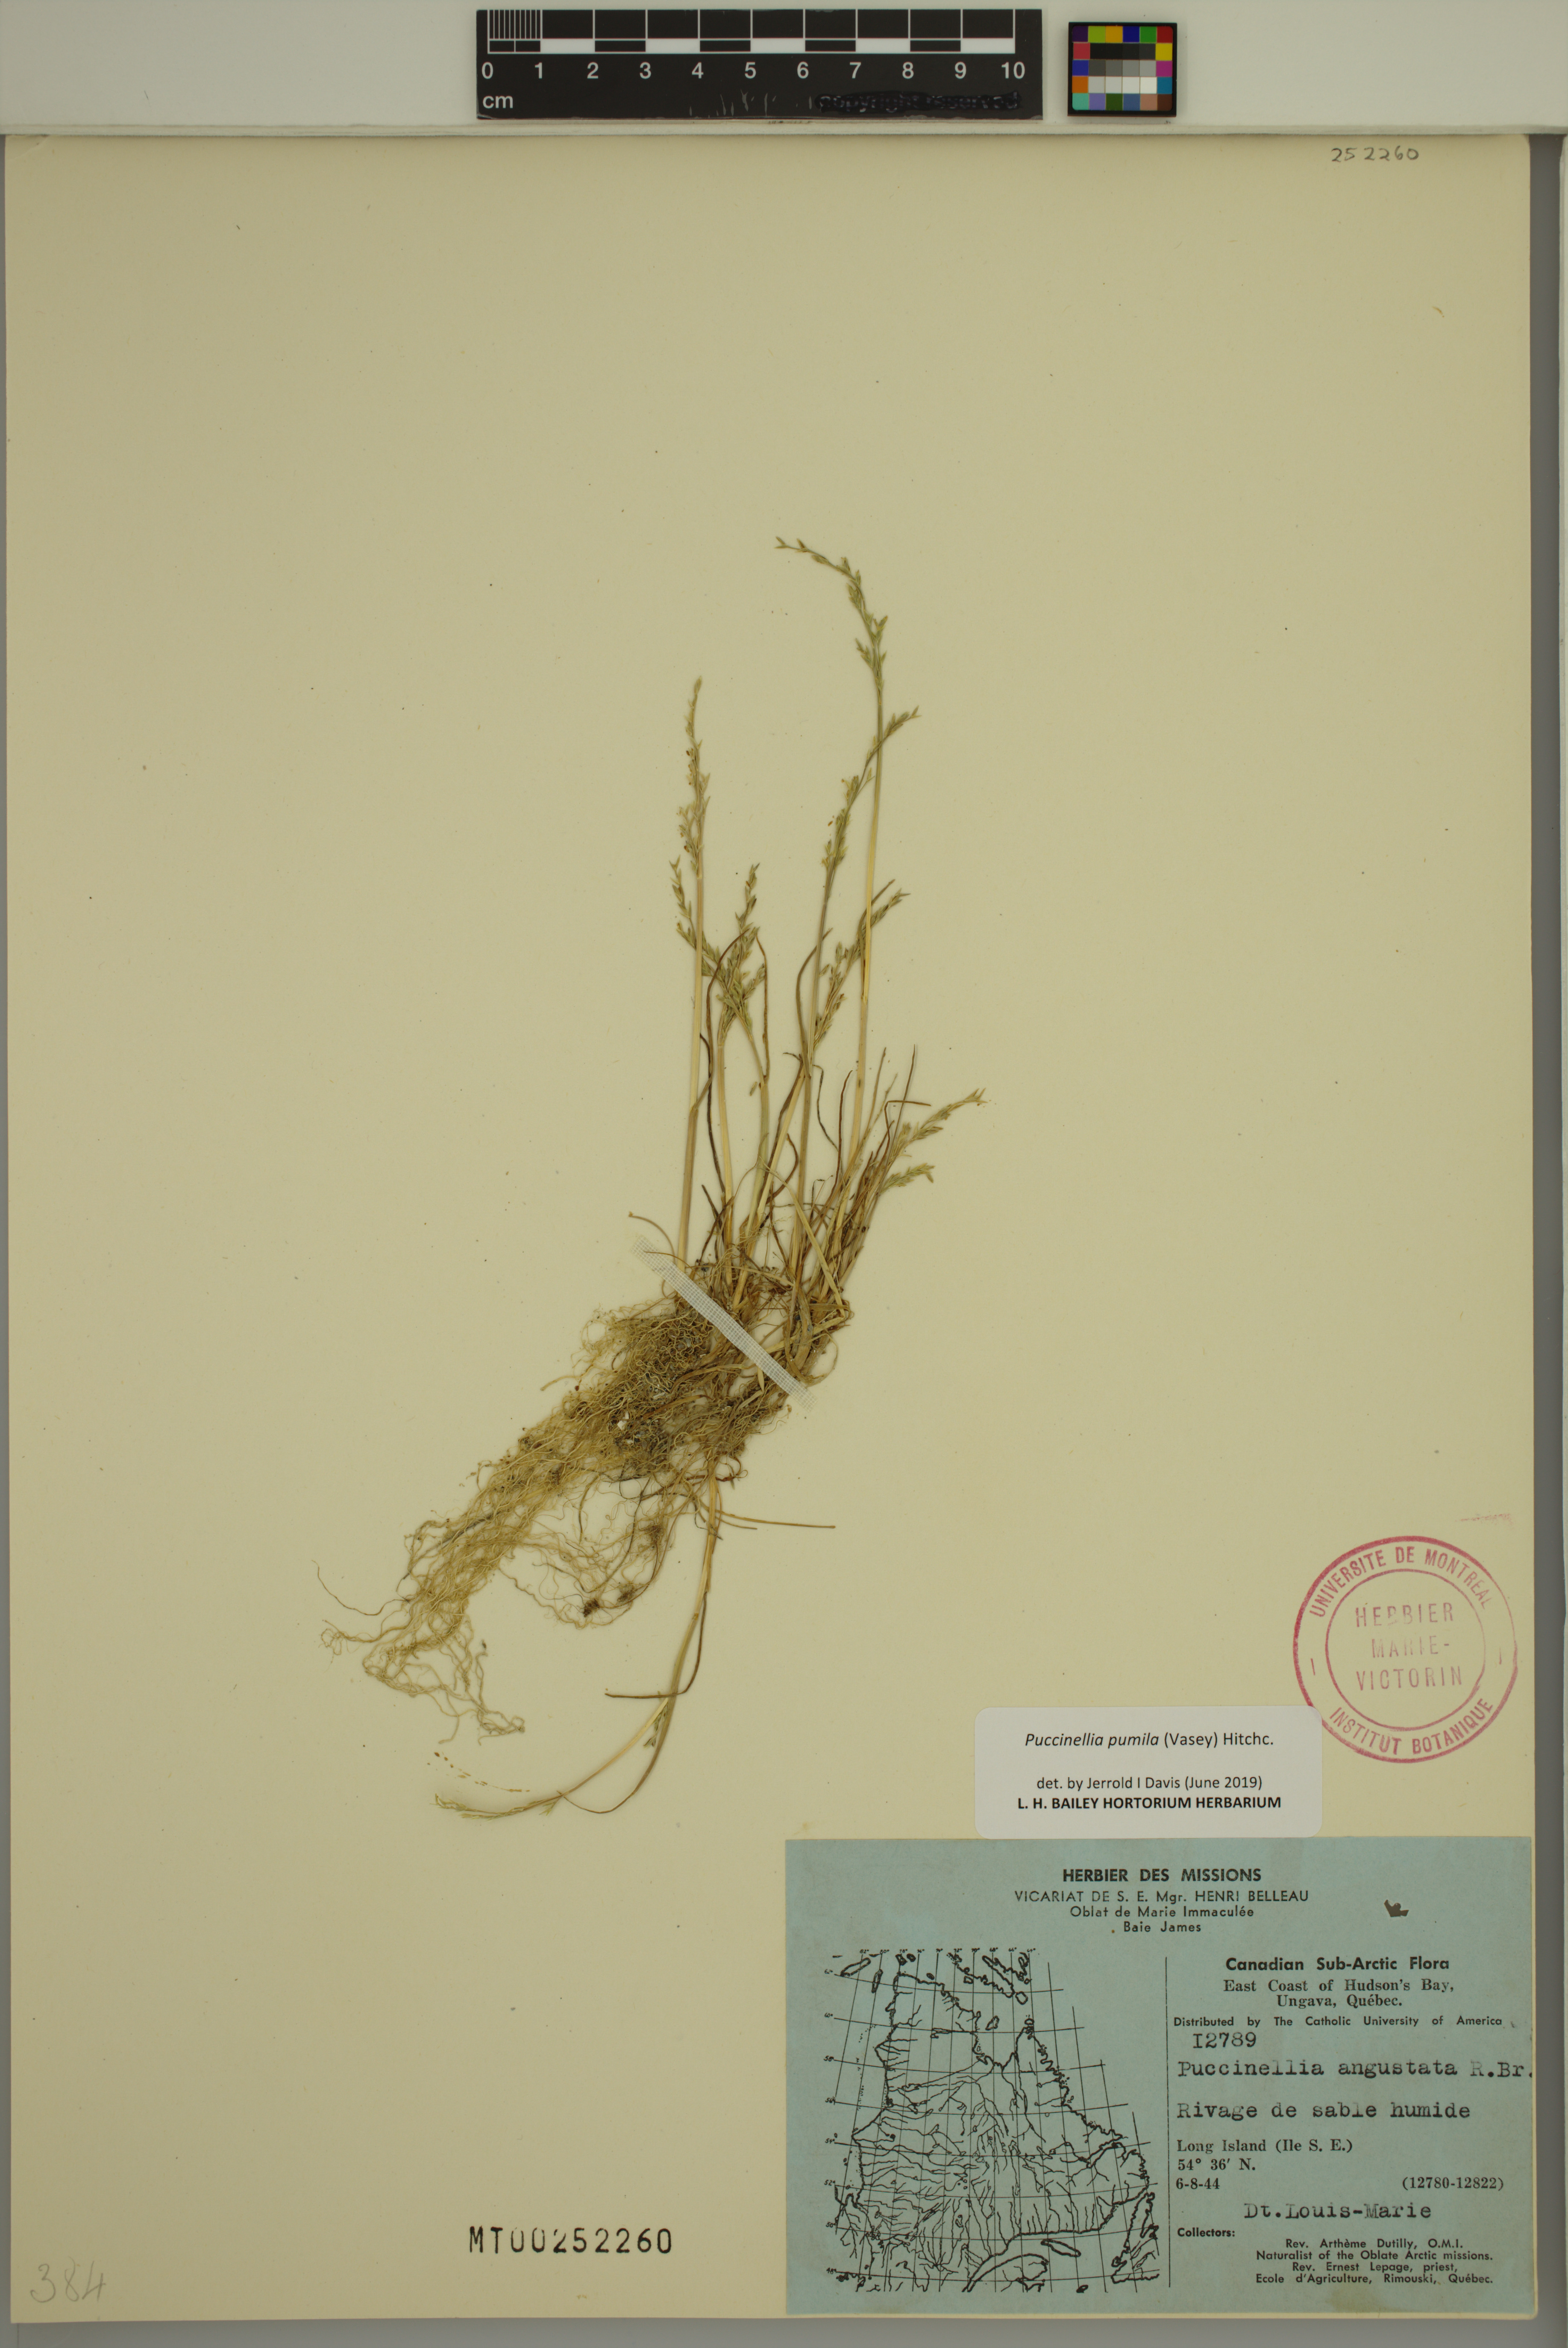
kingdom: Plantae
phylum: Tracheophyta
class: Liliopsida
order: Poales
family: Poaceae
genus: Puccinellia
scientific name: Puccinellia pumila
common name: Dwarf alkaligrass
